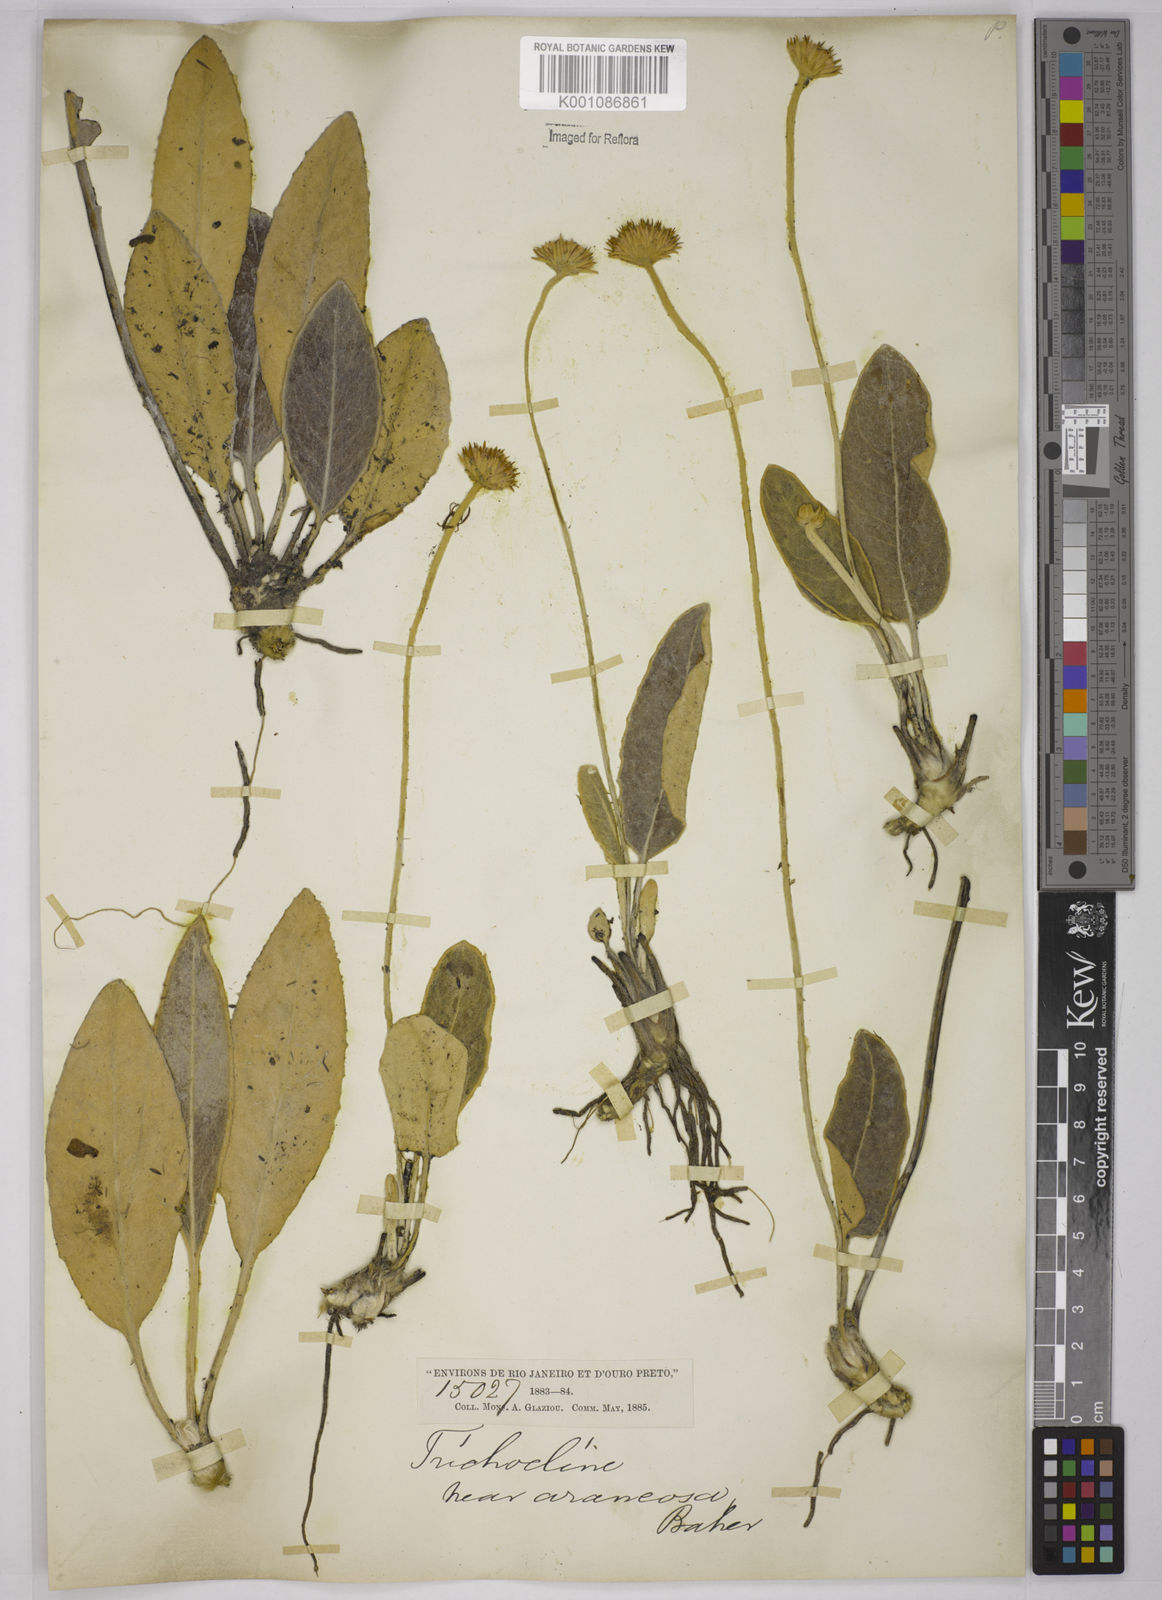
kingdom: Plantae
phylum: Tracheophyta
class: Magnoliopsida
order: Asterales
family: Asteraceae
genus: Chaptalia
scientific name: Chaptalia martii
